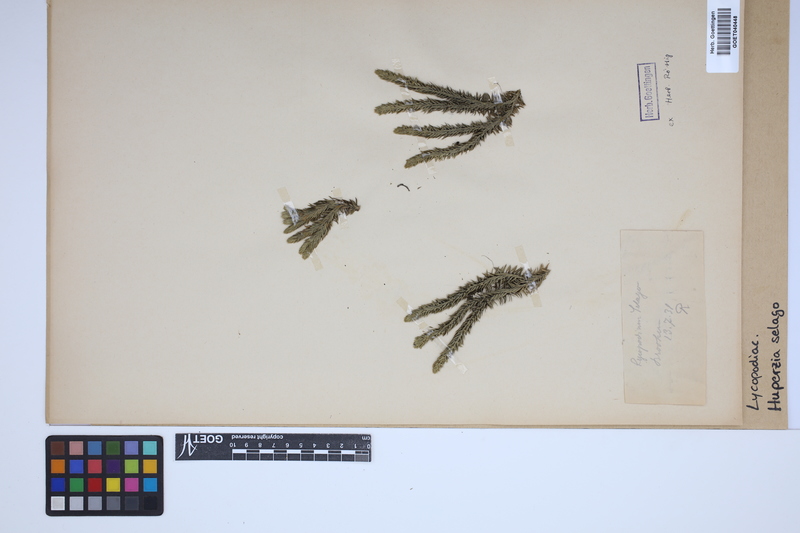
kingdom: Plantae
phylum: Tracheophyta
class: Lycopodiopsida
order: Lycopodiales
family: Lycopodiaceae
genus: Huperzia
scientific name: Huperzia selago
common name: Northern firmoss
